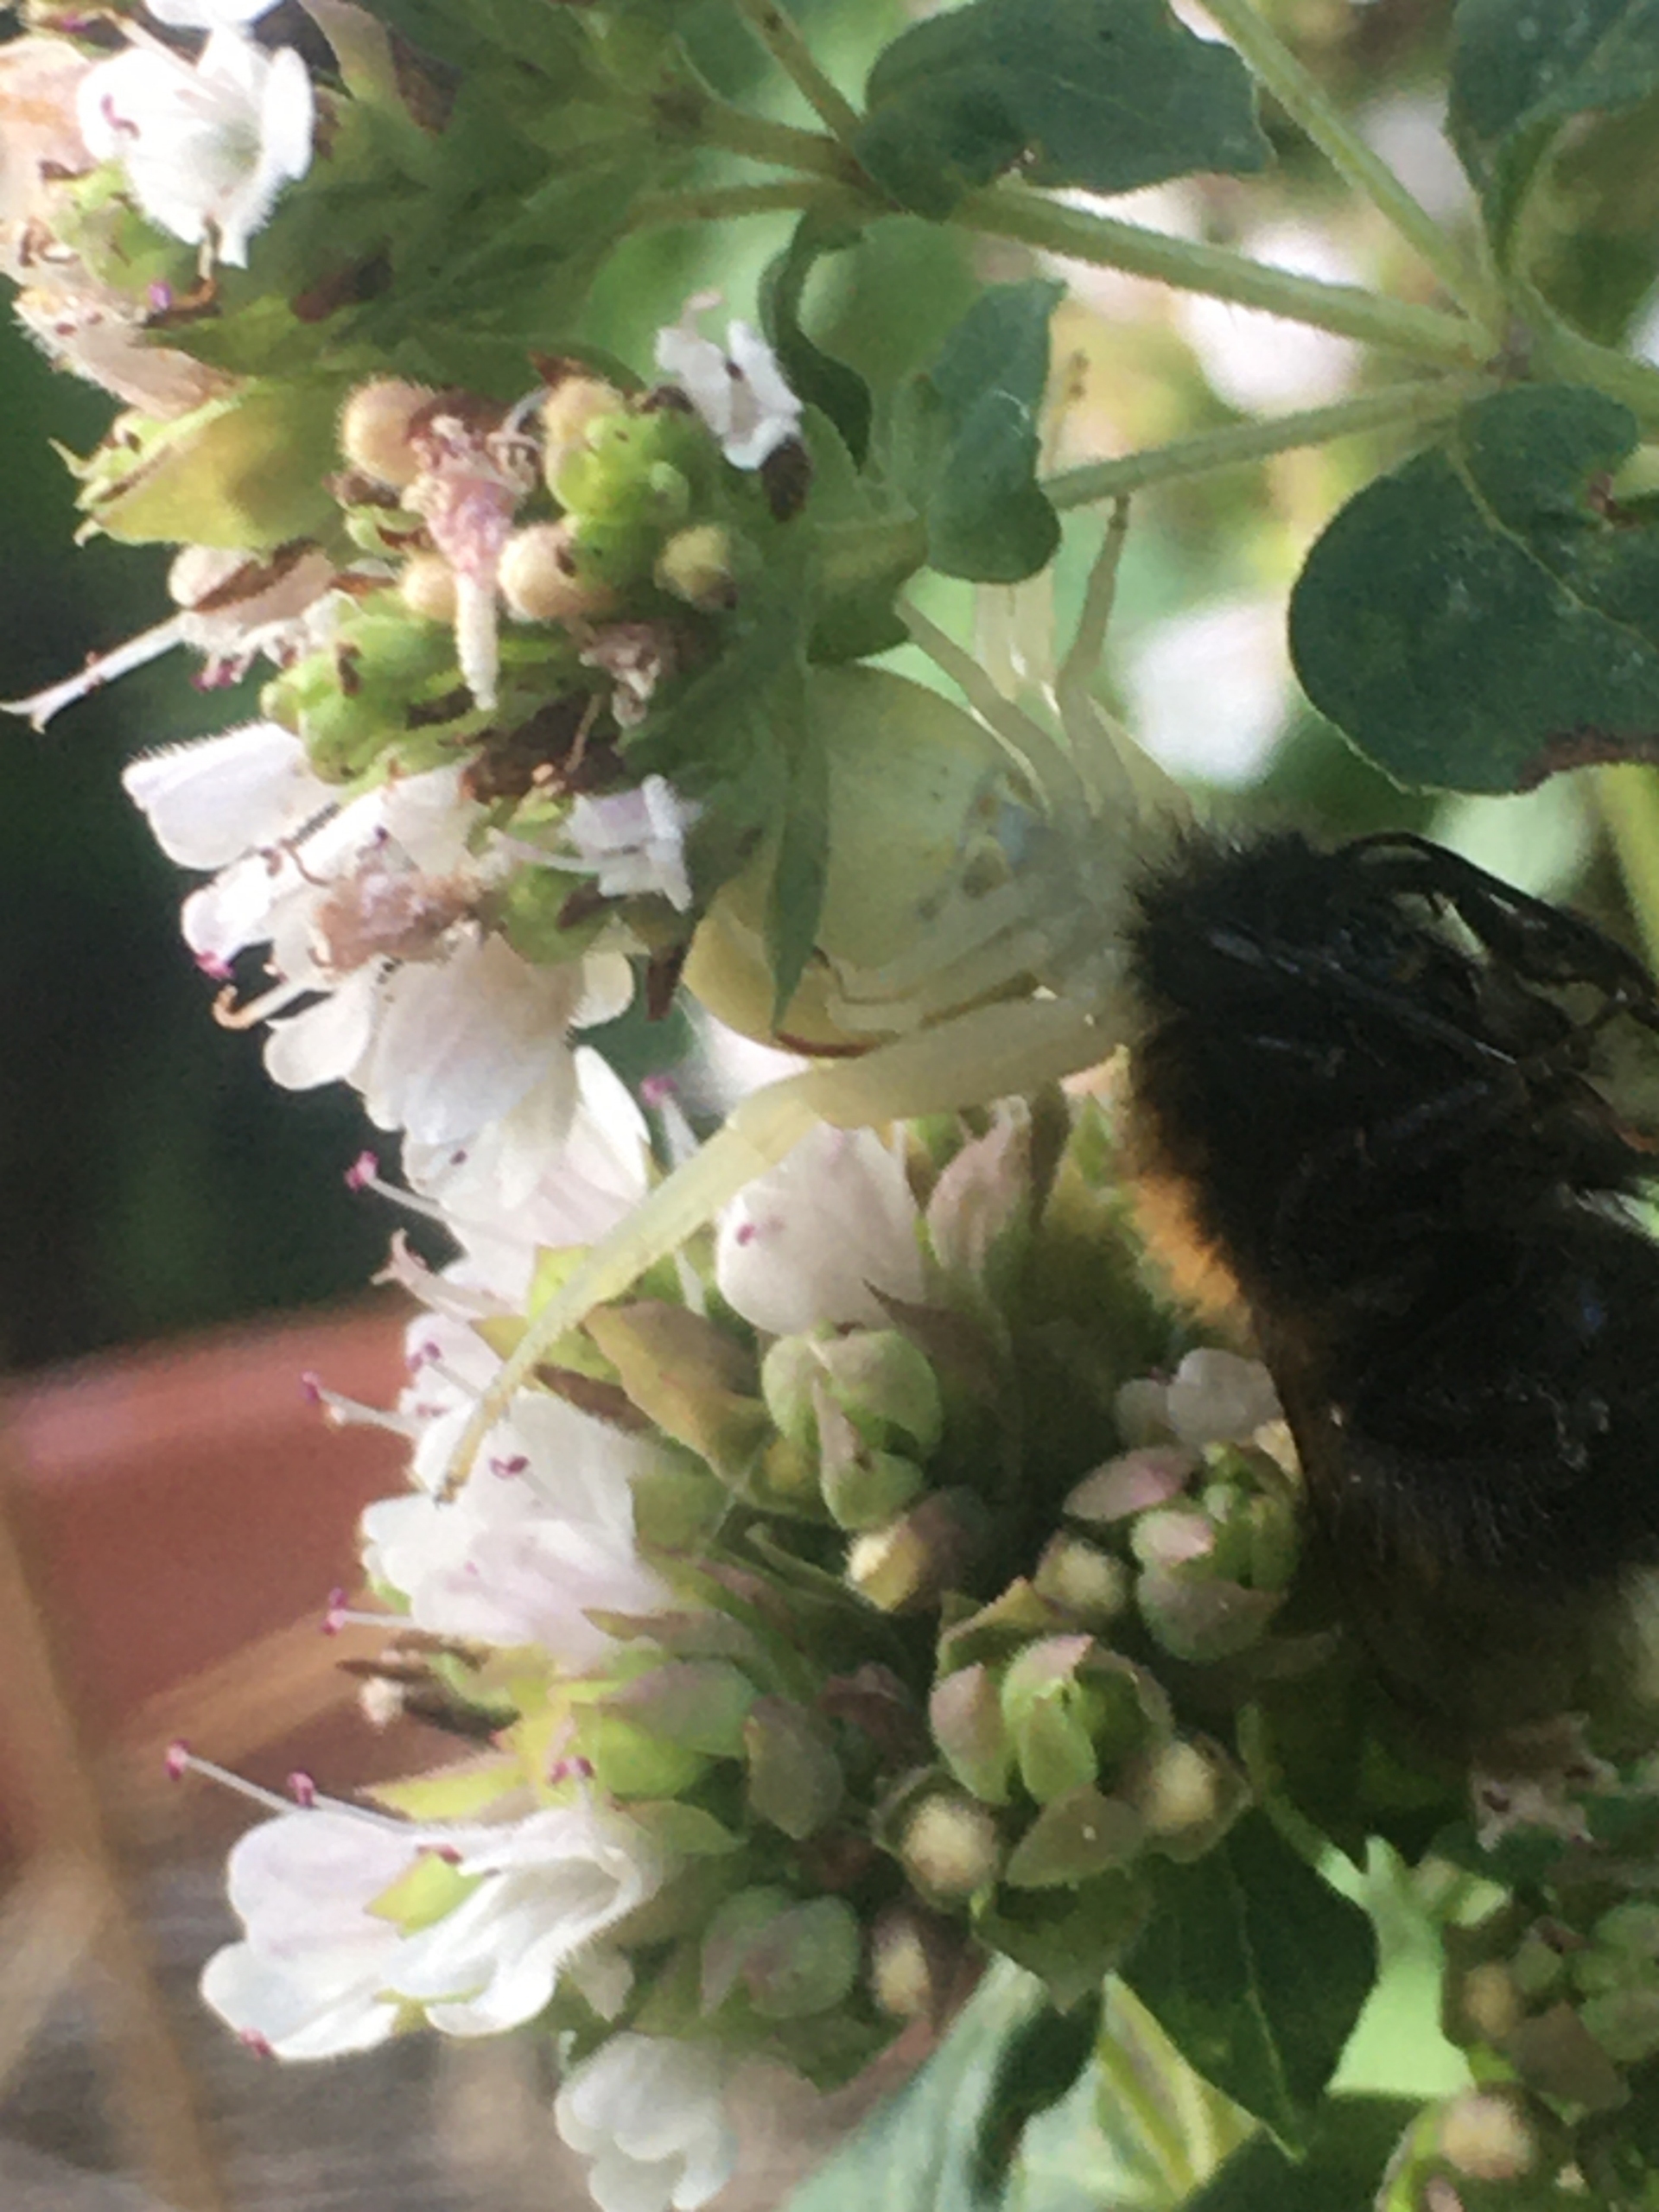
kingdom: Animalia
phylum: Arthropoda
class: Arachnida
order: Araneae
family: Thomisidae
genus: Misumena
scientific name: Misumena vatia
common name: Kamæleonedderkop
